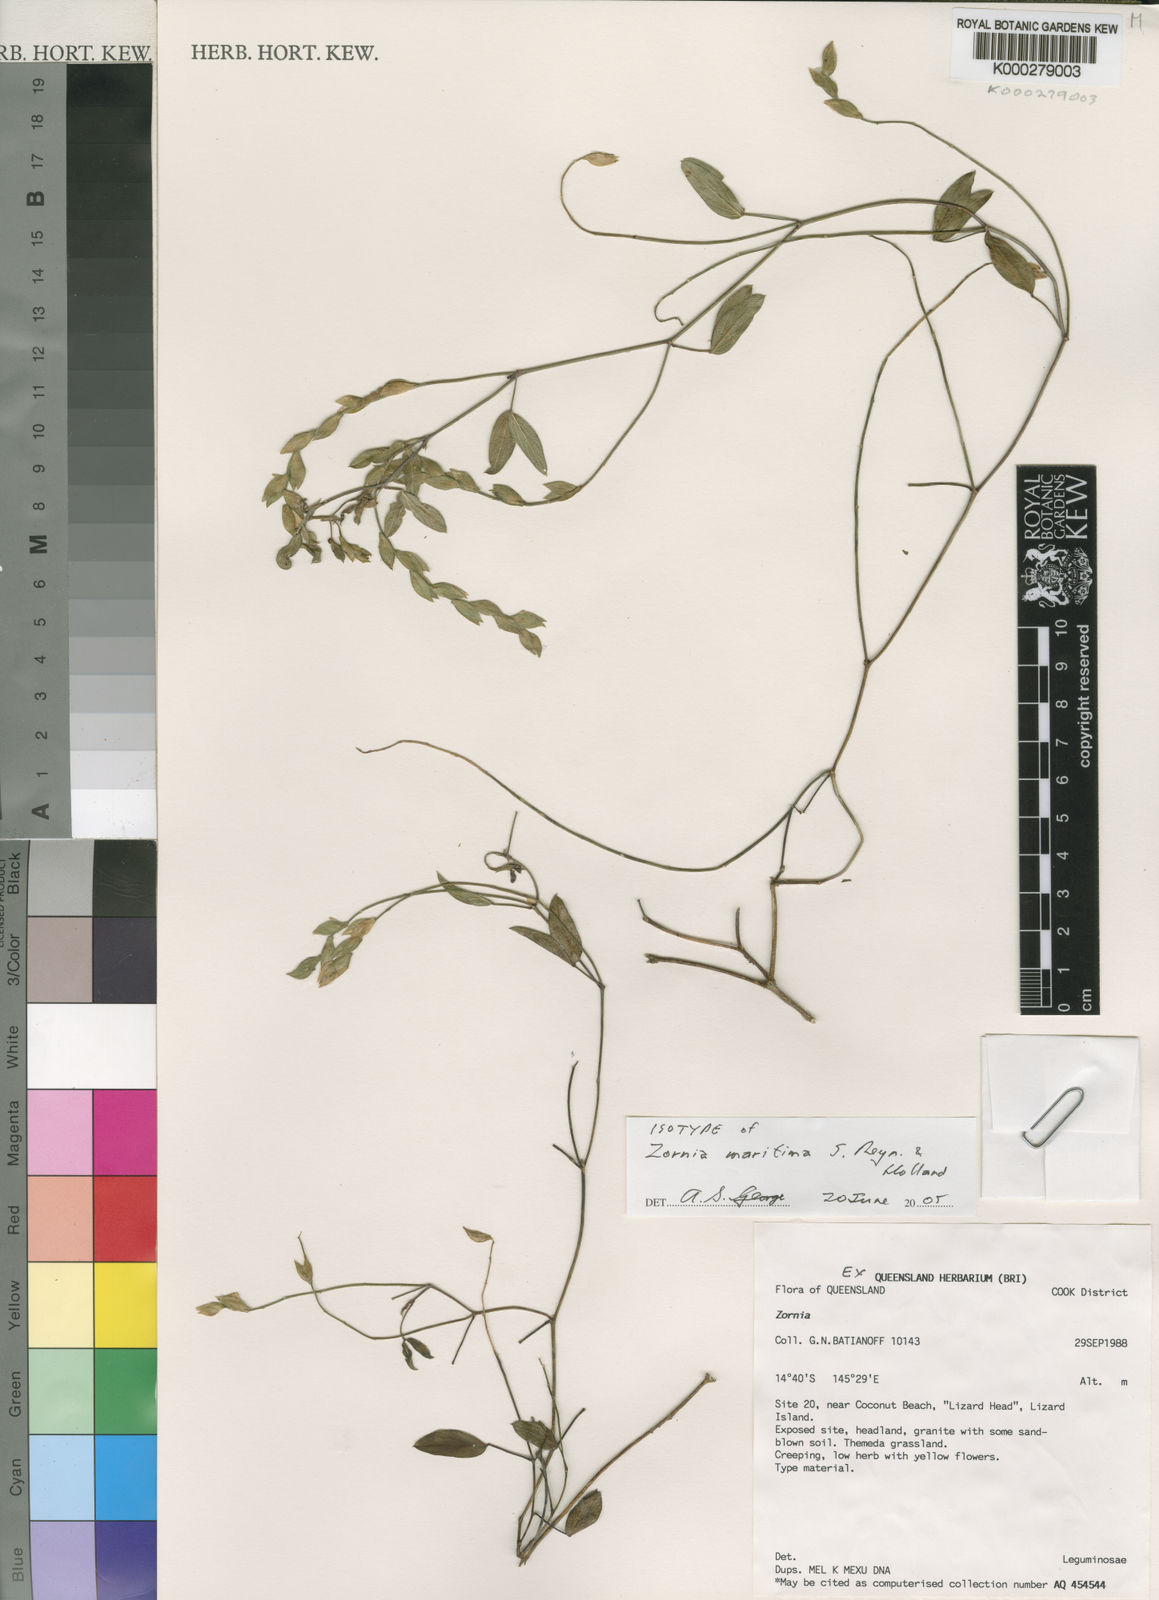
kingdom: Plantae
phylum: Tracheophyta
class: Magnoliopsida
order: Fabales
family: Fabaceae
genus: Zornia
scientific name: Zornia maritima
